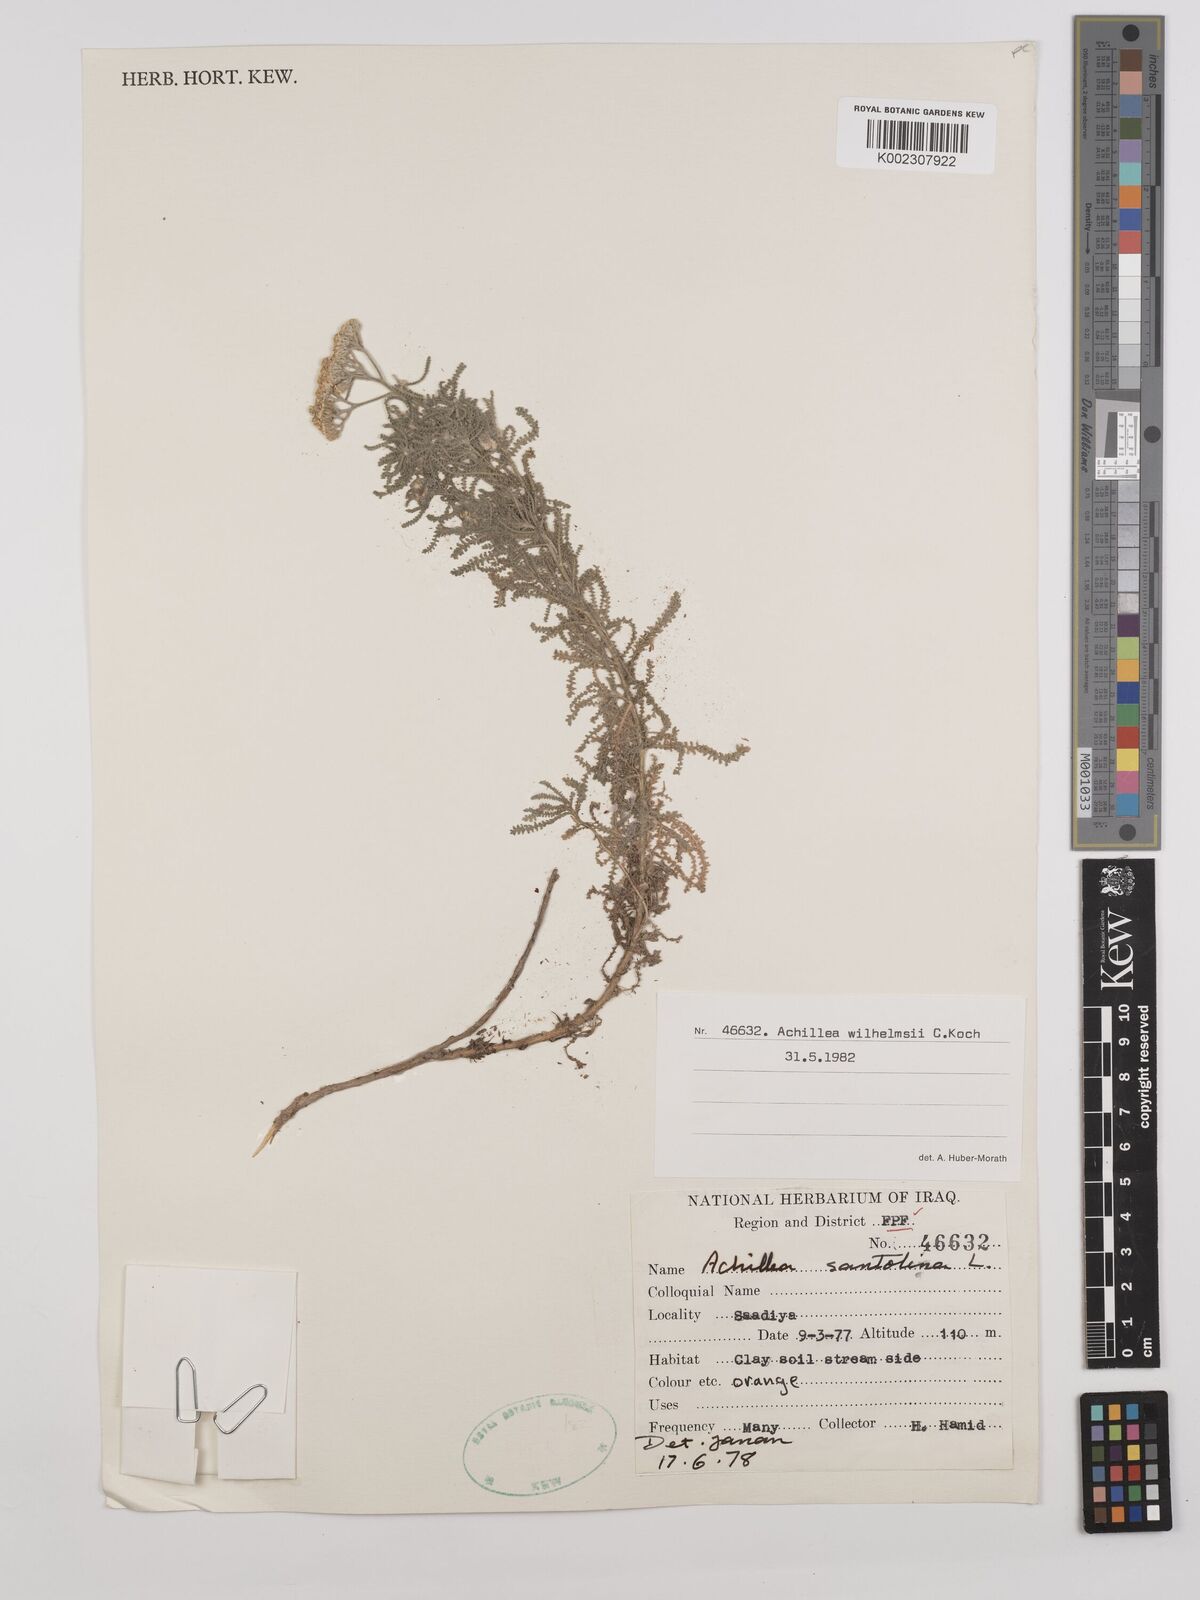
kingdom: Plantae
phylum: Tracheophyta
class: Magnoliopsida
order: Asterales
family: Asteraceae
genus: Achillea
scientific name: Achillea wilhelmsii
